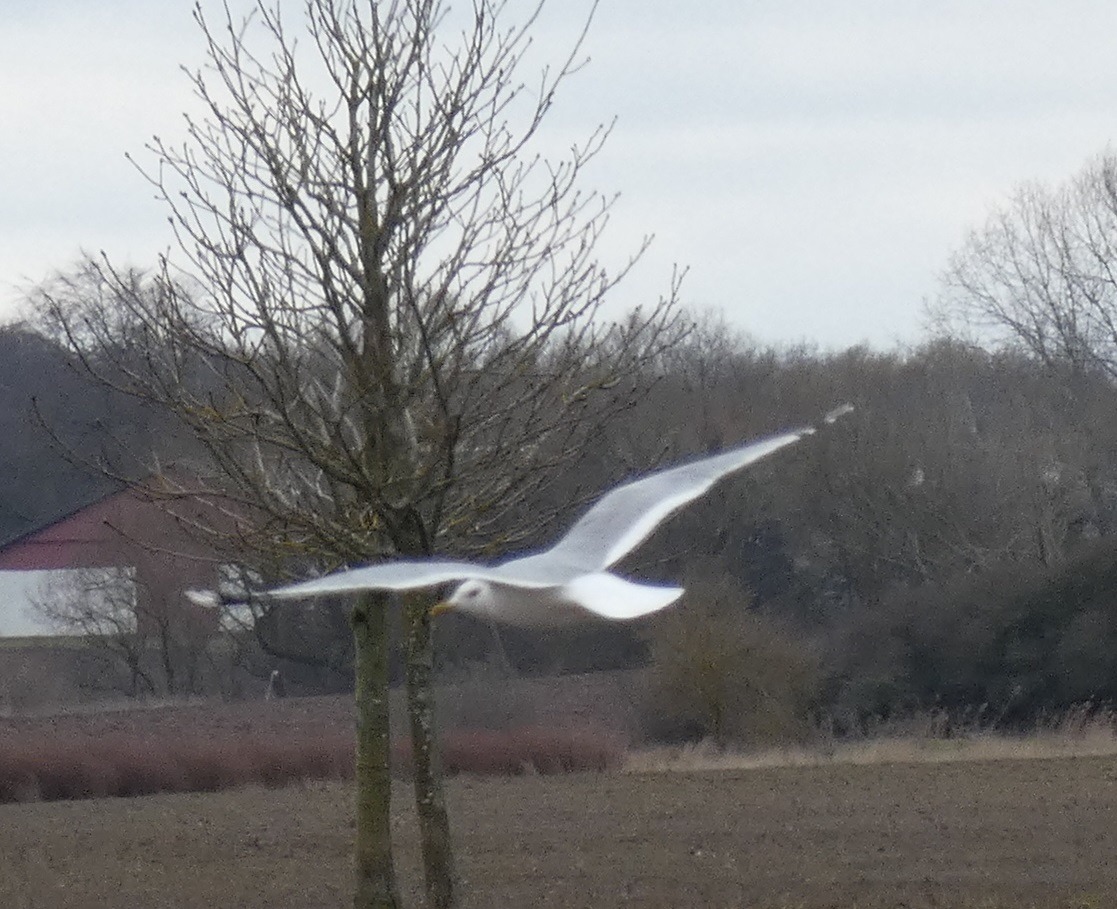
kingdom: Animalia
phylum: Chordata
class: Aves
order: Charadriiformes
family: Laridae
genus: Larus
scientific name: Larus canus
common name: Stormmåge
